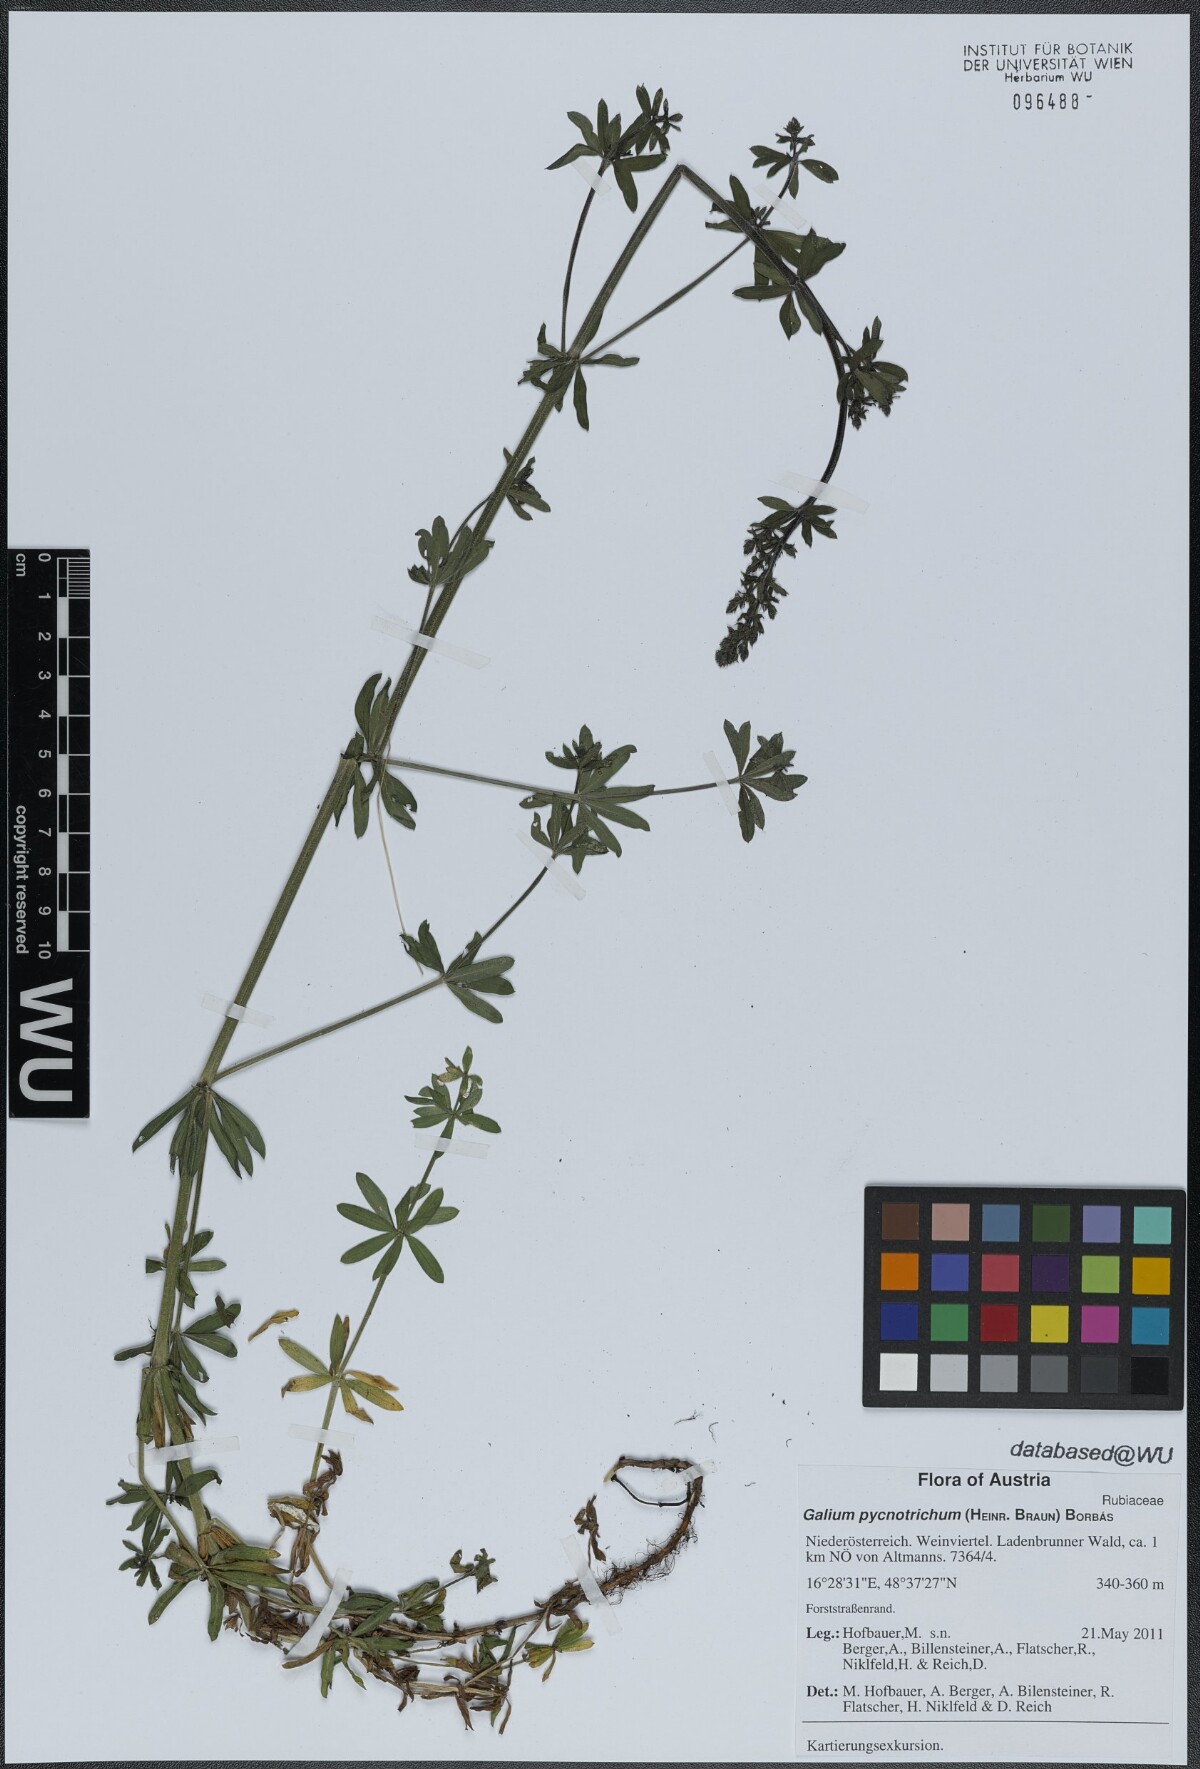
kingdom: Plantae
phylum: Tracheophyta
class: Magnoliopsida
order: Gentianales
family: Rubiaceae
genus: Galium
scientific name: Galium album
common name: White bedstraw
